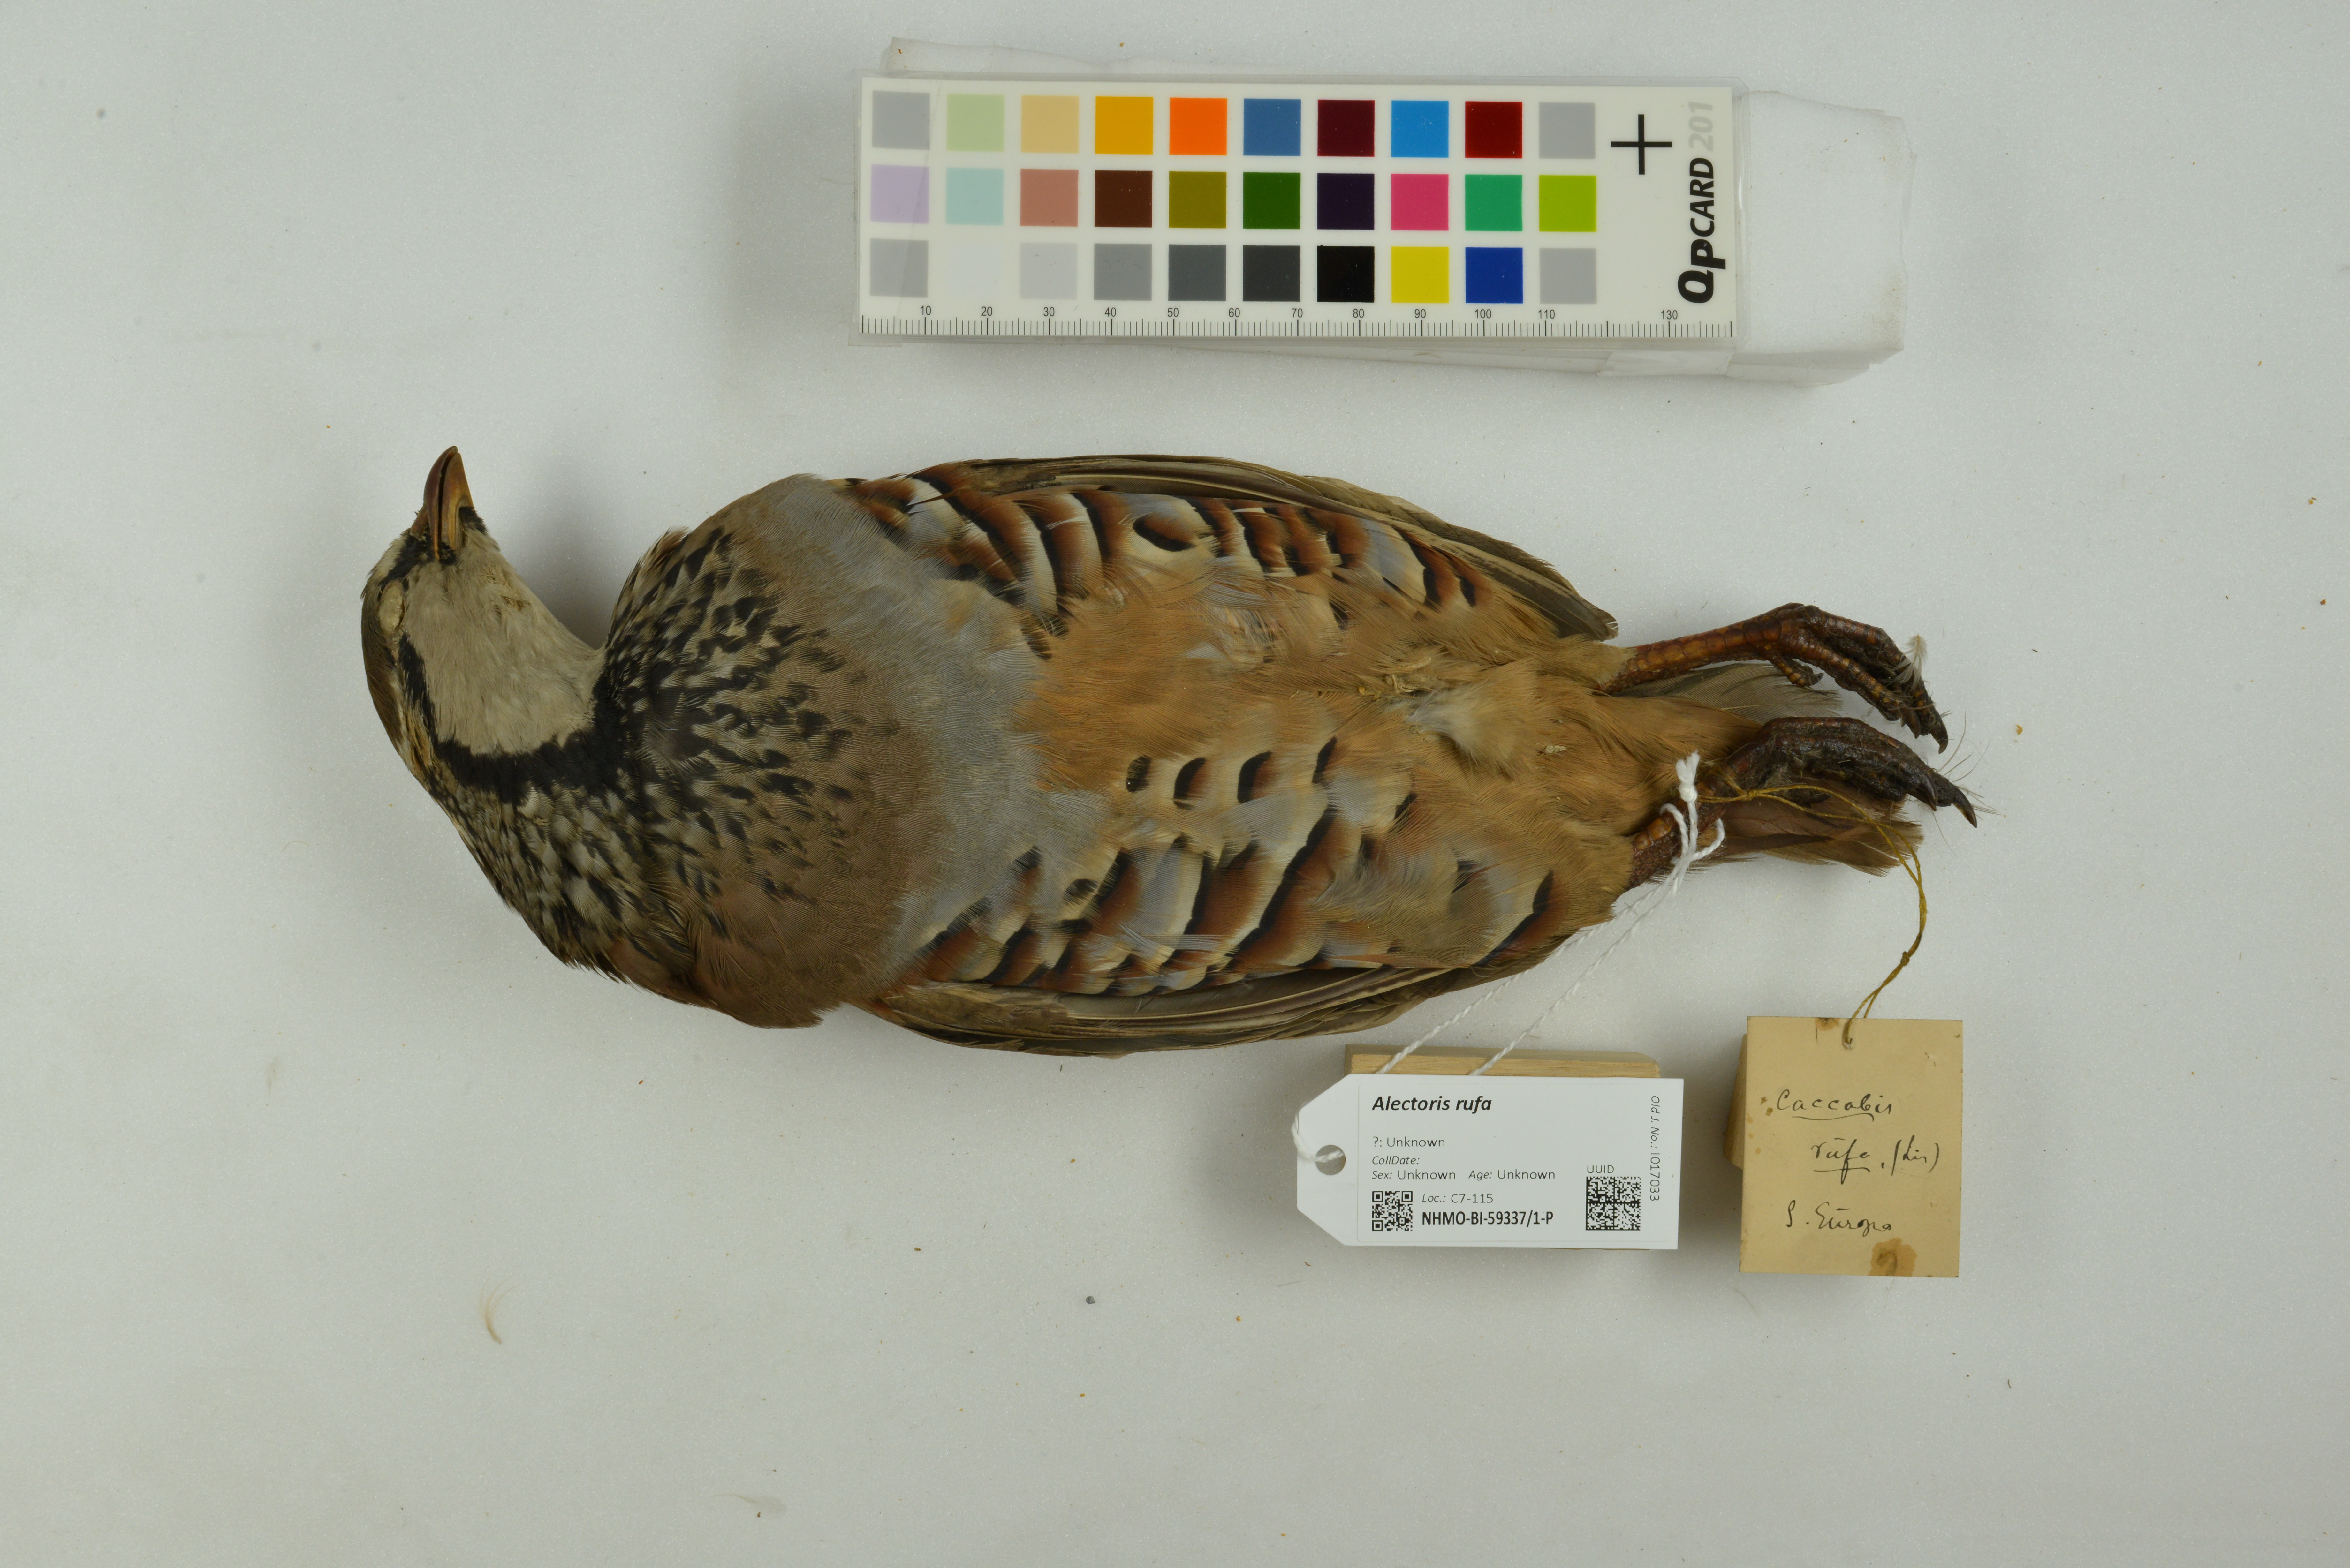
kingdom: Animalia
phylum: Chordata
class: Aves
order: Galliformes
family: Phasianidae
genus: Alectoris
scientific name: Alectoris rufa
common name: Red-legged partridge
